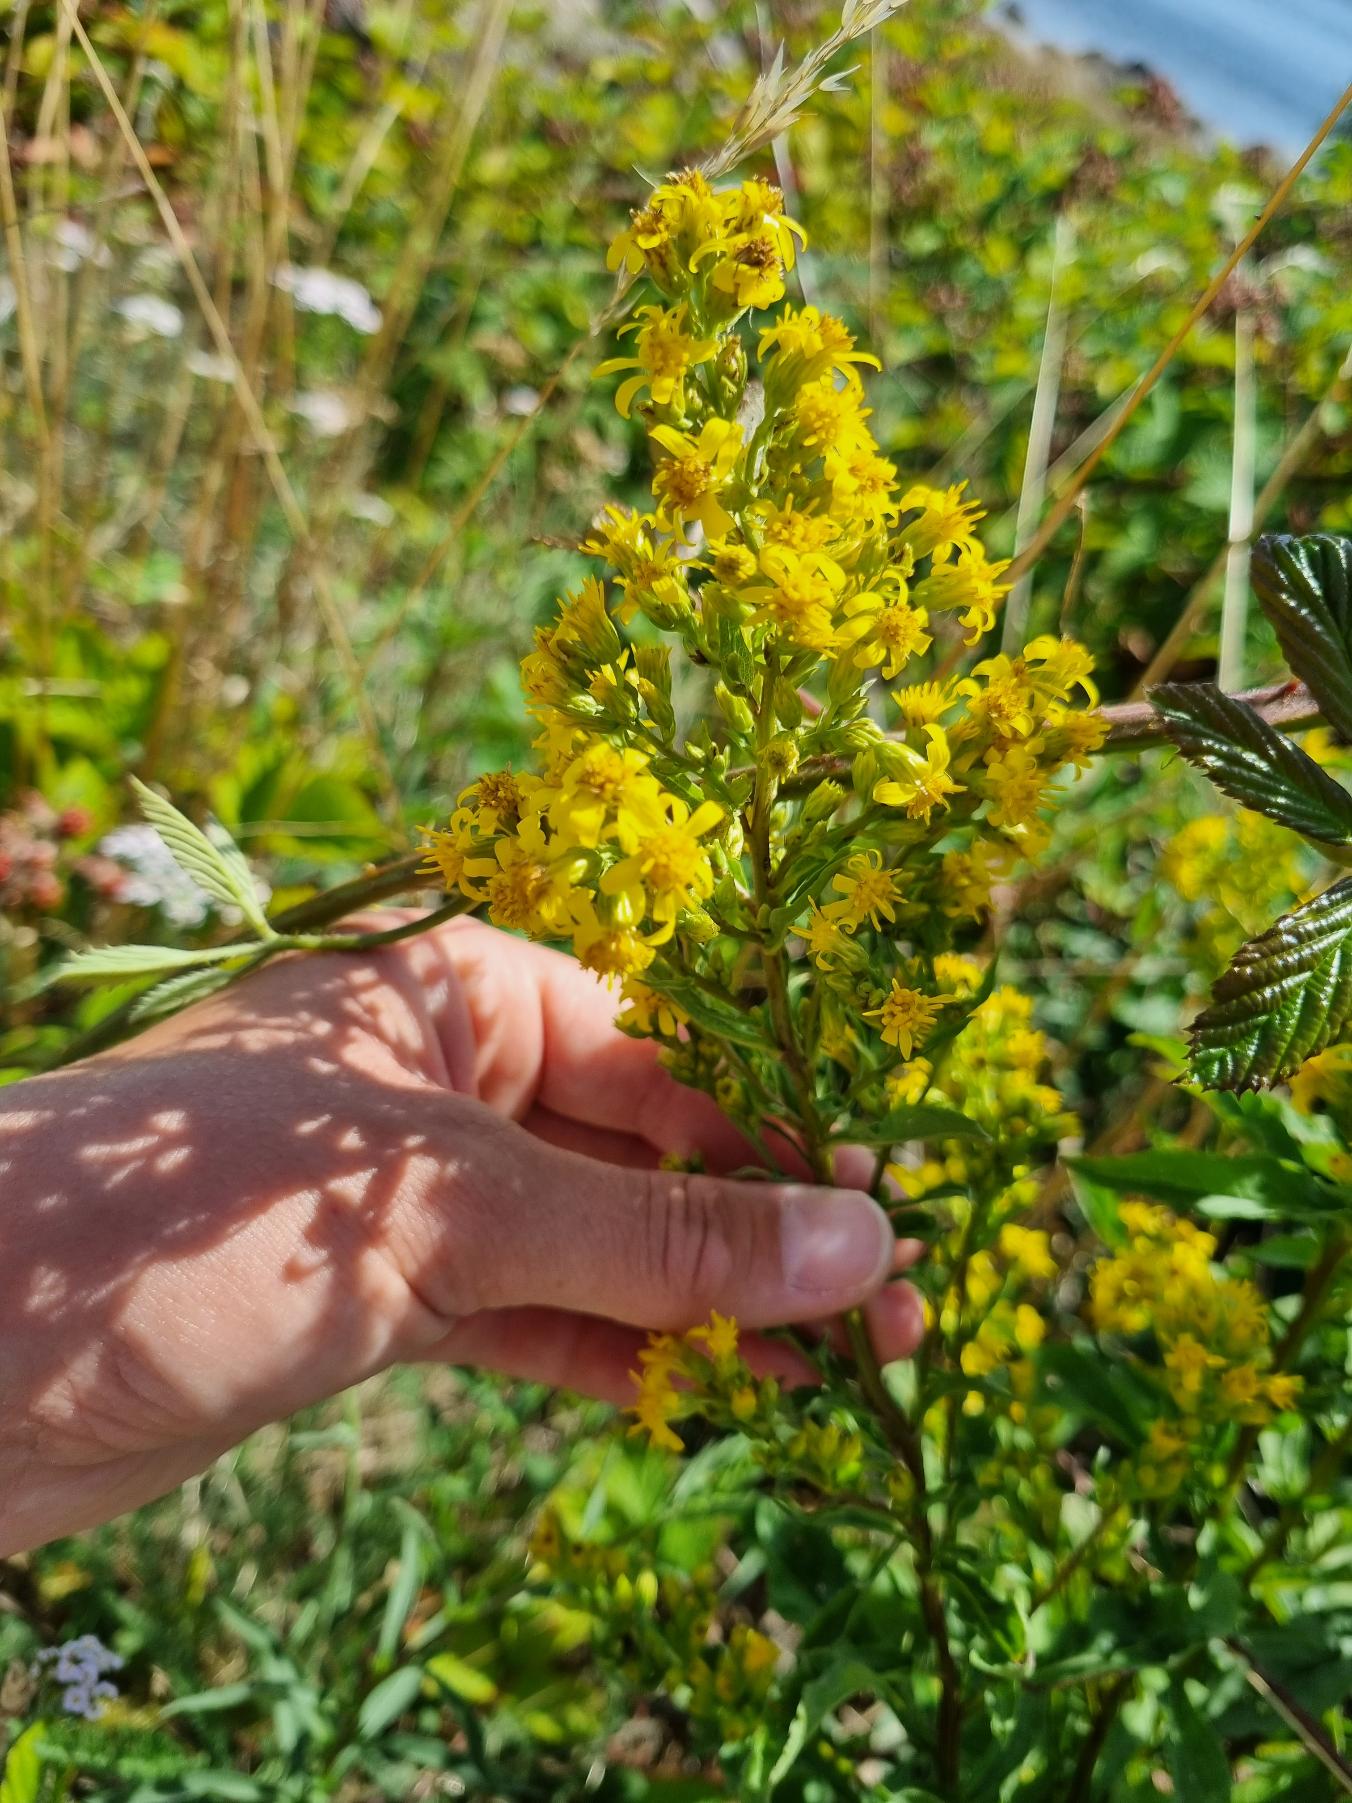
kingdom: Plantae
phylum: Tracheophyta
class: Magnoliopsida
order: Asterales
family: Asteraceae
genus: Solidago
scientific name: Solidago virgaurea
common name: Almindelig gyldenris
